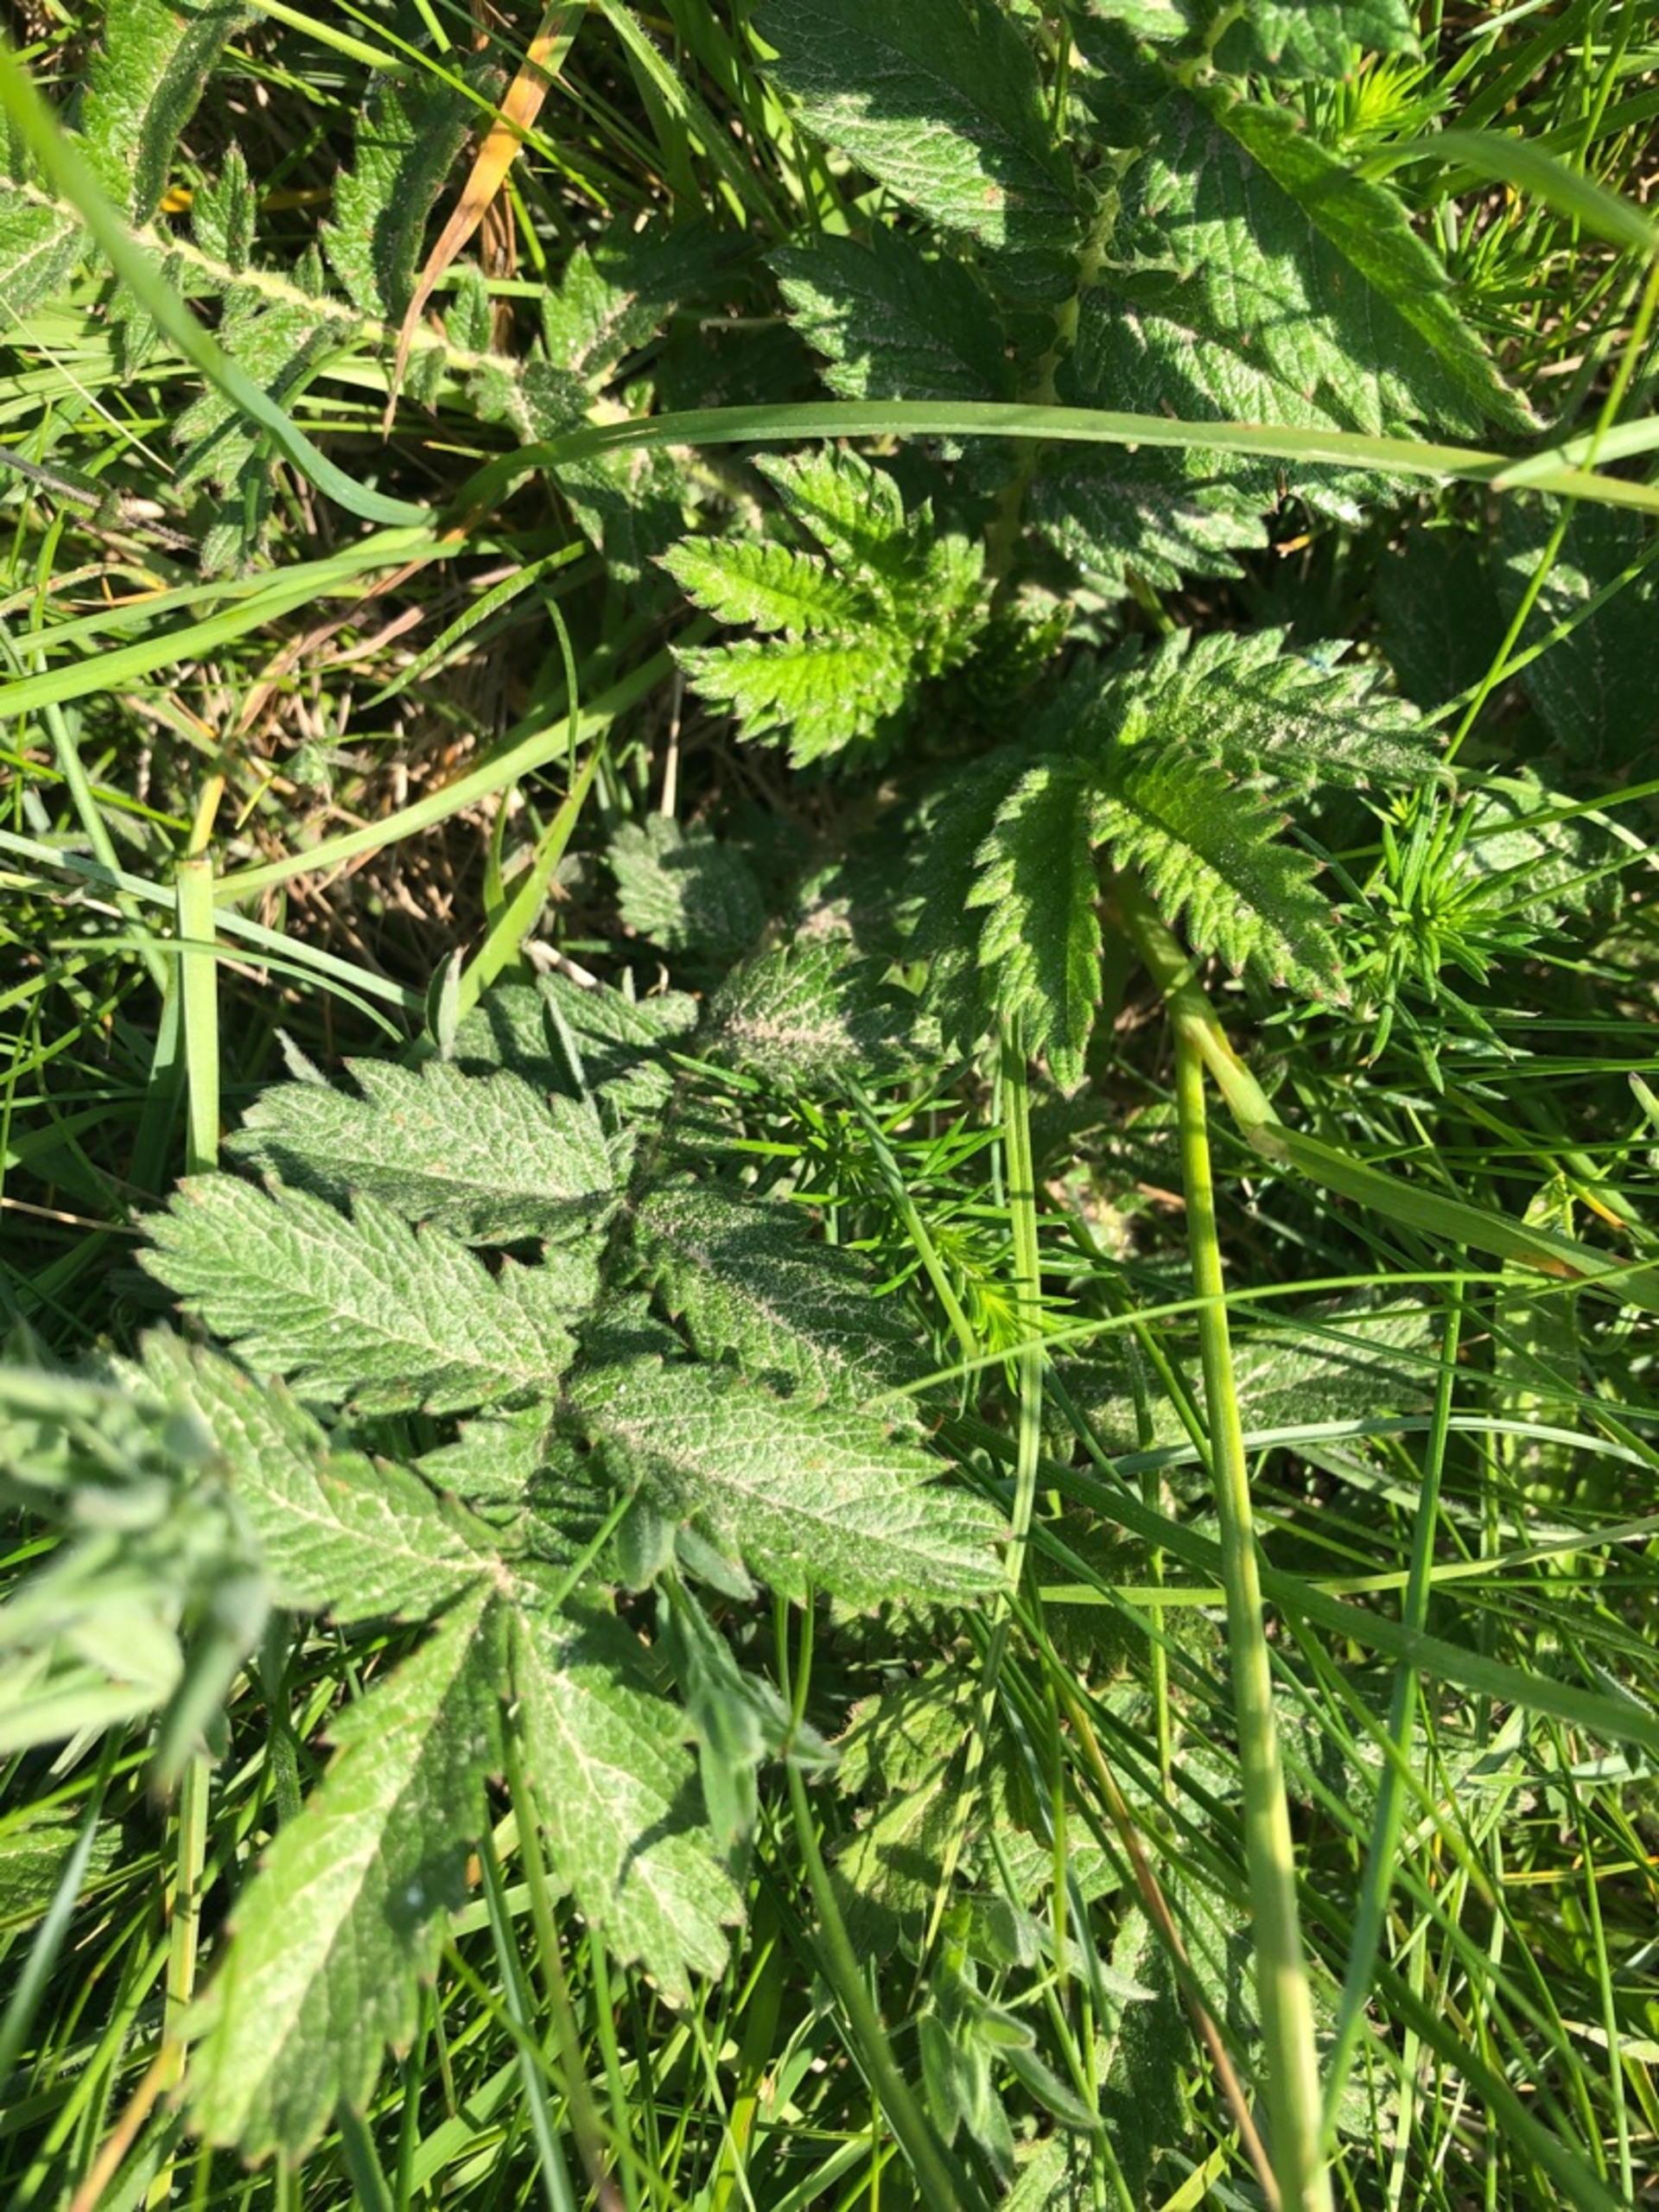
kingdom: Plantae
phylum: Tracheophyta
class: Magnoliopsida
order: Rosales
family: Rosaceae
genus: Agrimonia
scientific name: Agrimonia eupatoria
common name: Almindelig agermåne
